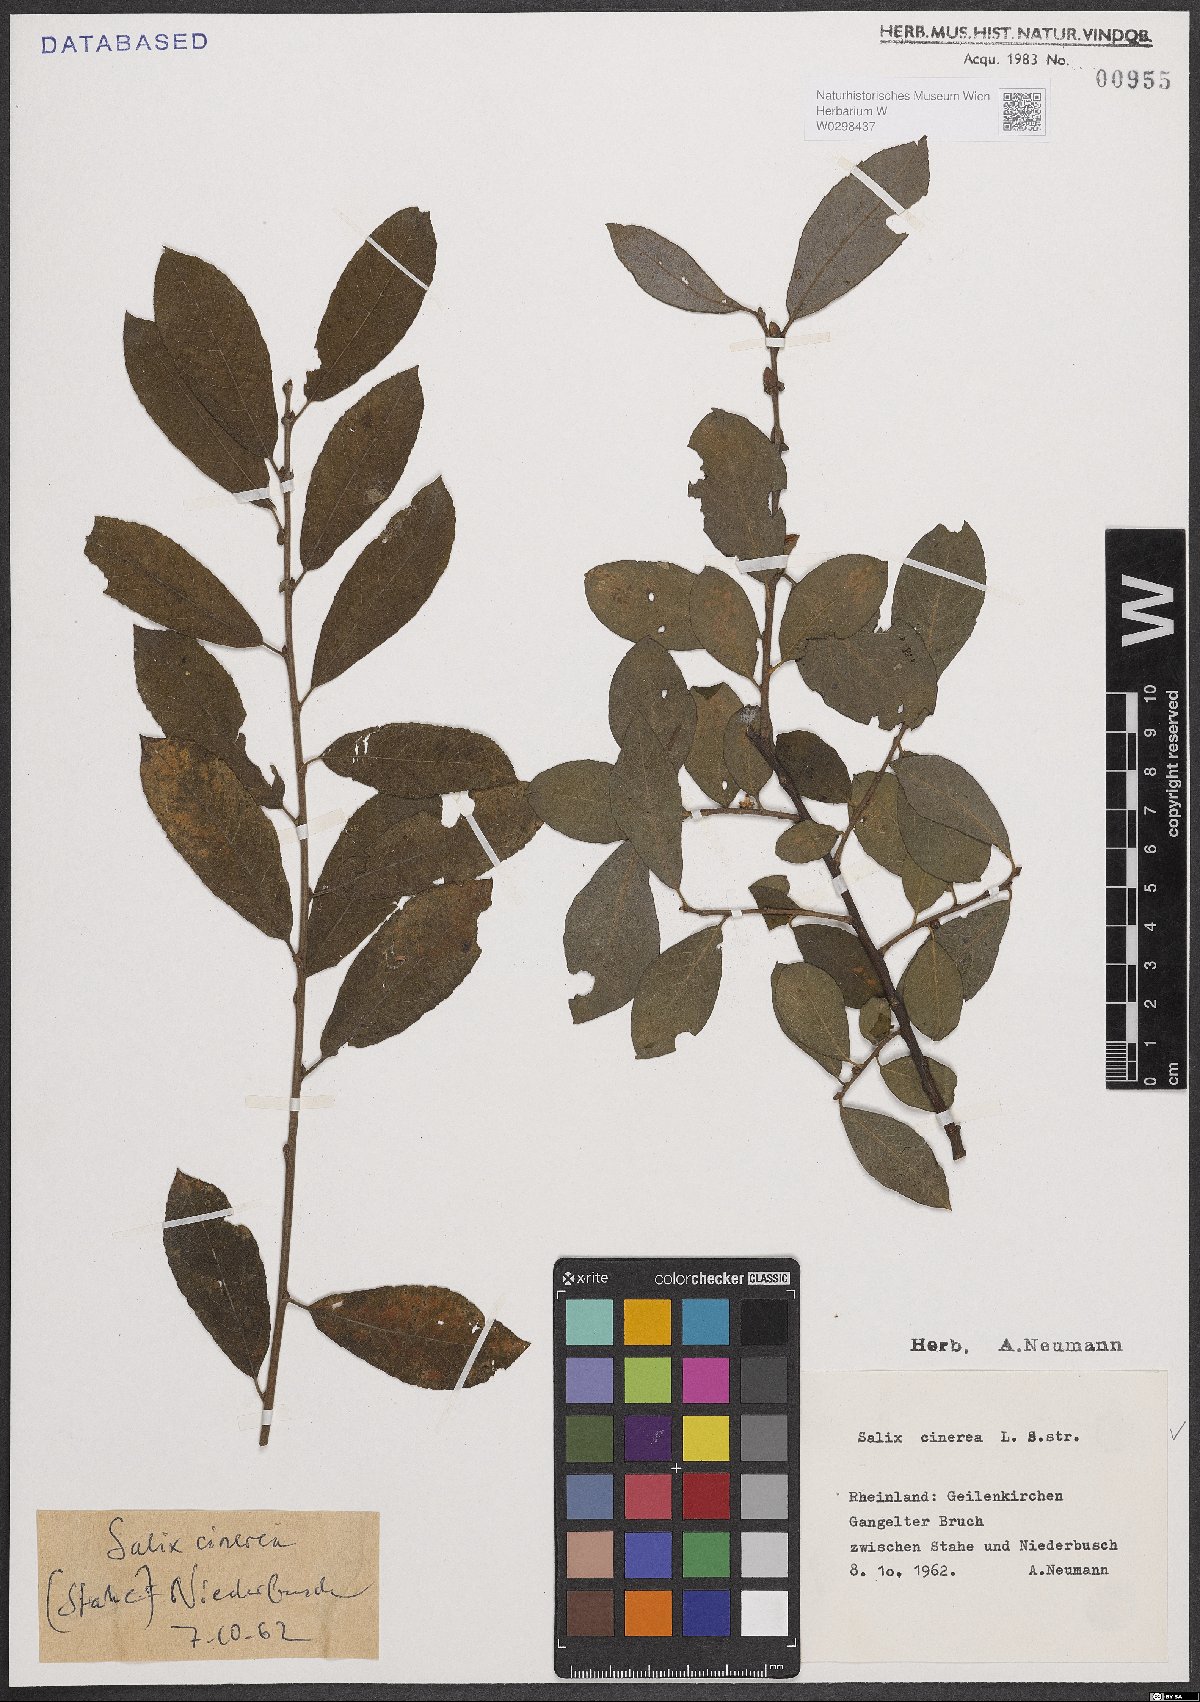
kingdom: Plantae
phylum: Tracheophyta
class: Magnoliopsida
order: Malpighiales
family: Salicaceae
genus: Salix
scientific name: Salix cinerea
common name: Common sallow
